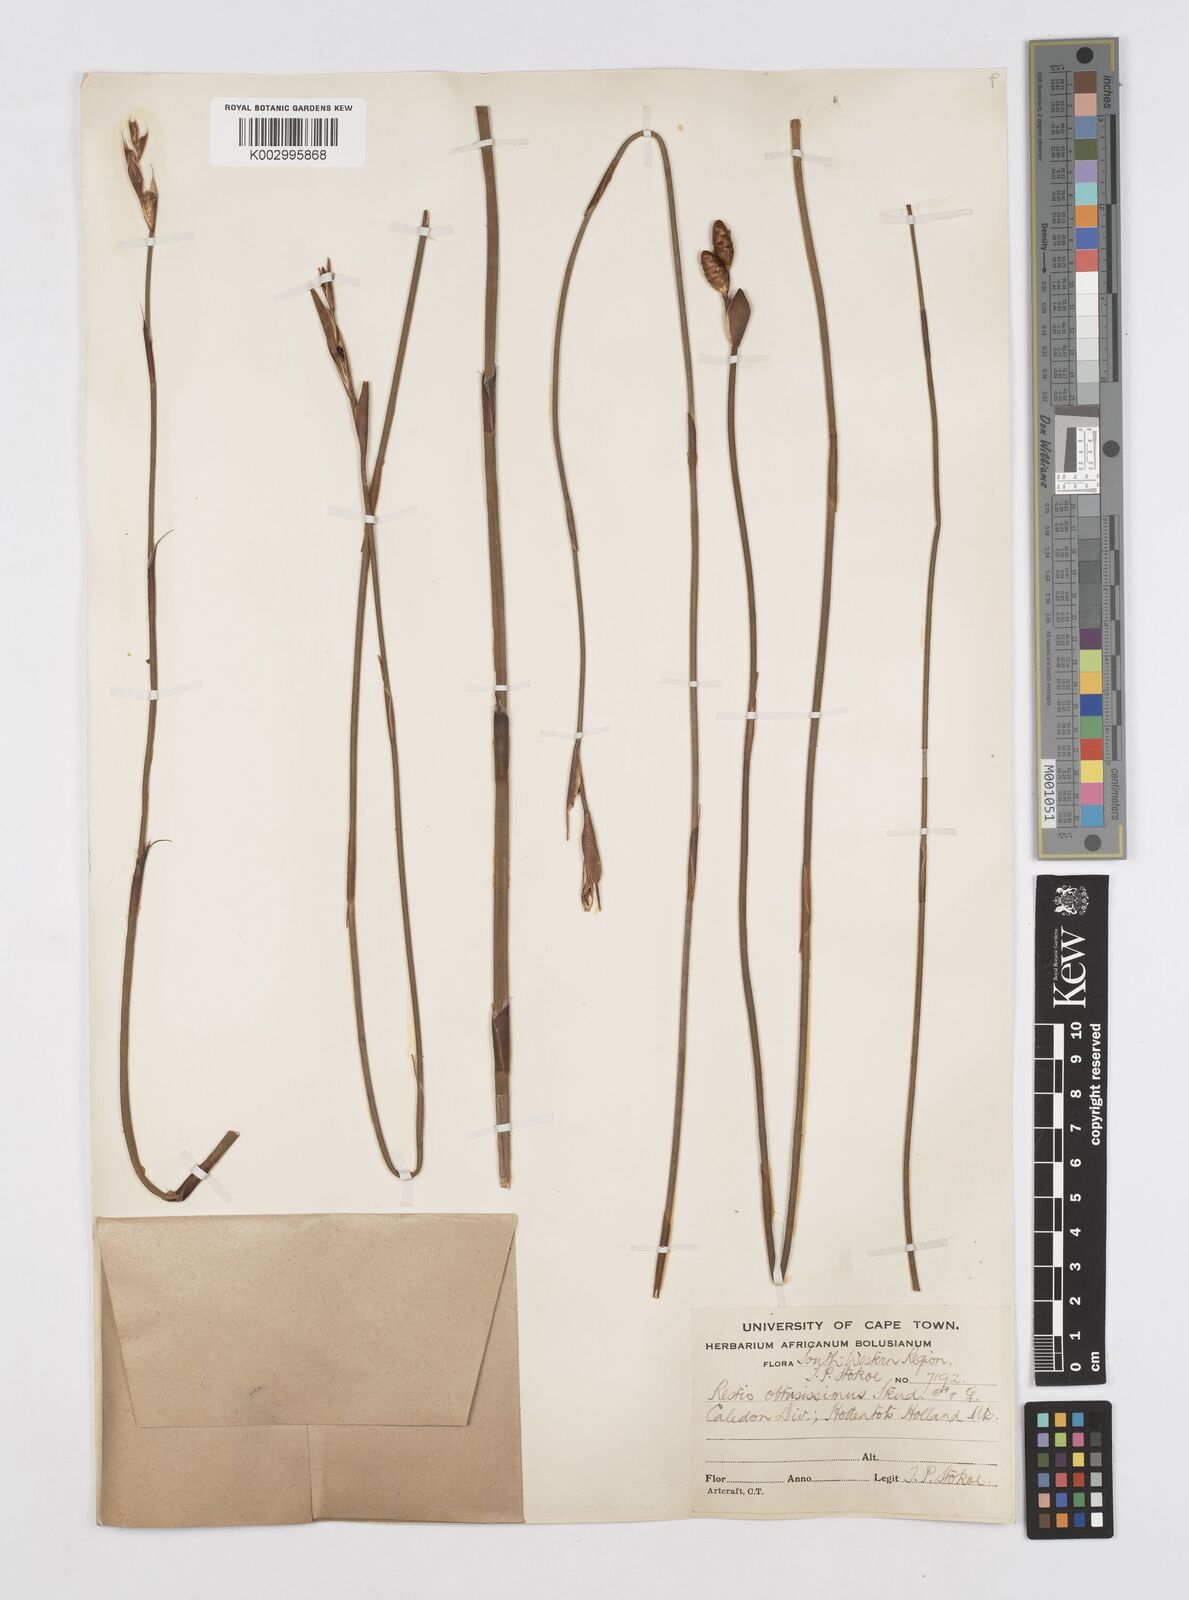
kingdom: Plantae
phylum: Tracheophyta
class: Liliopsida
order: Poales
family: Restionaceae
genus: Nevillea
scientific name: Nevillea obtusissimus
